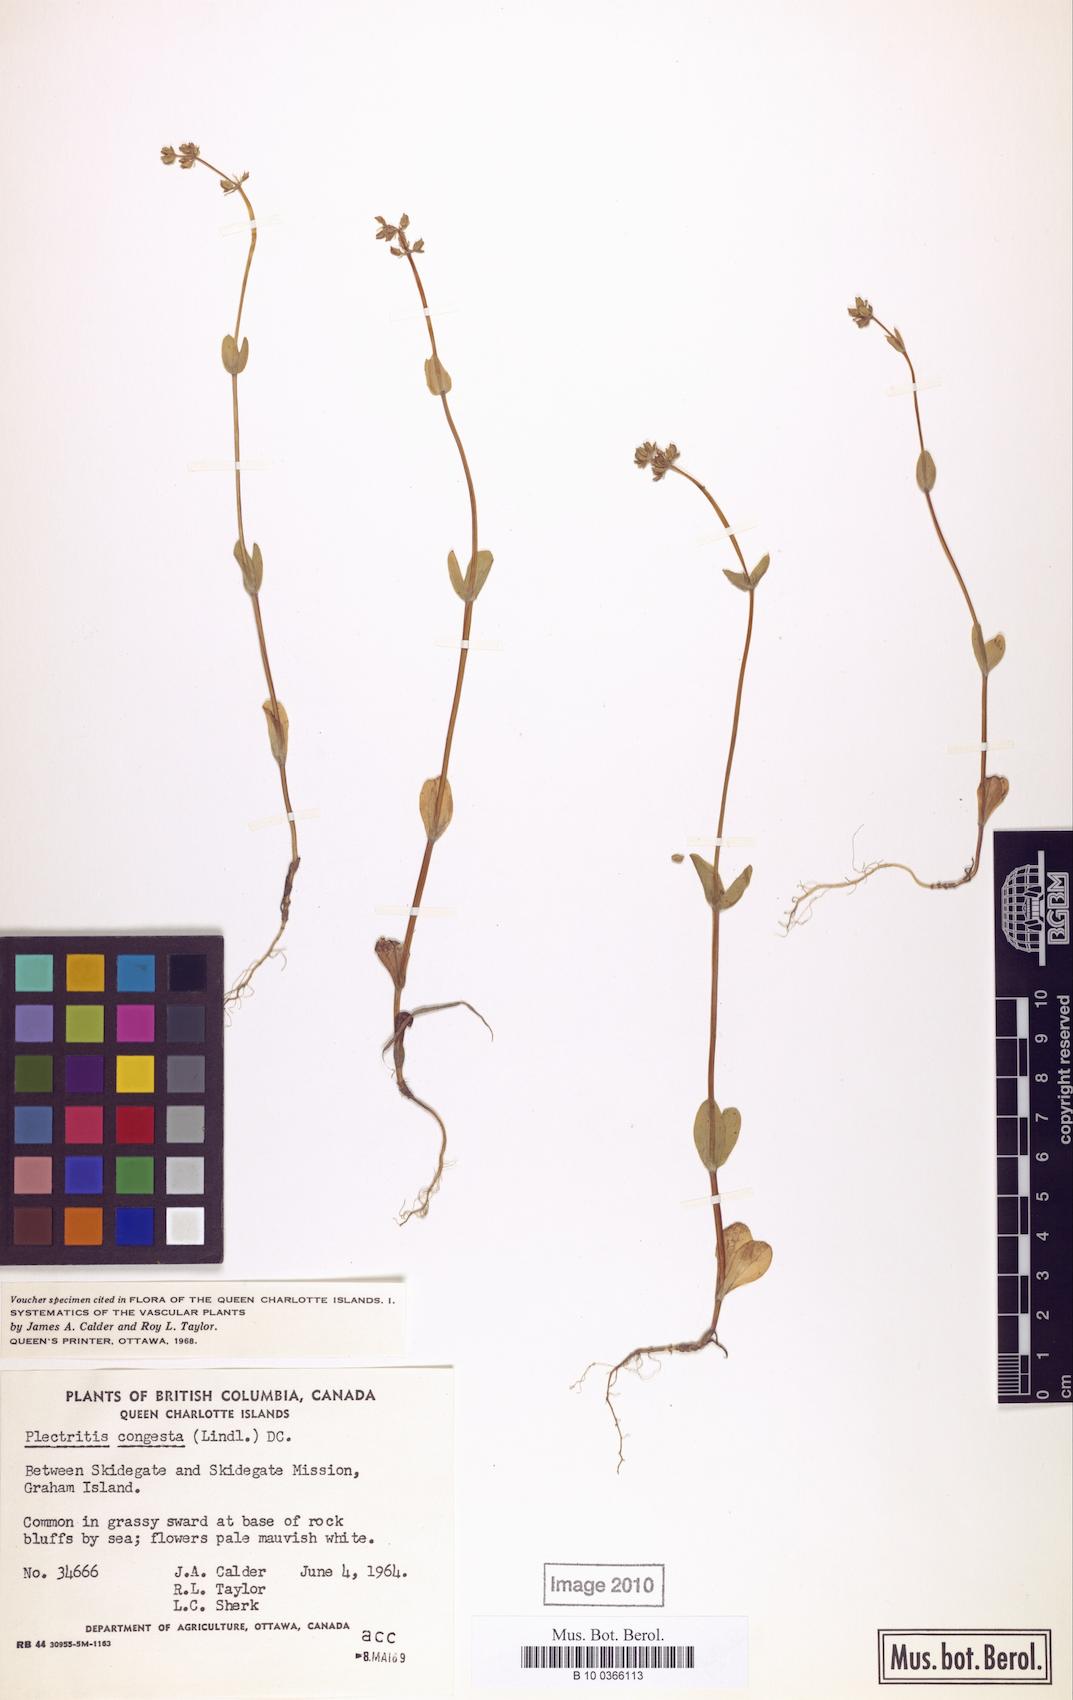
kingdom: Plantae
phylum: Tracheophyta
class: Magnoliopsida
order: Dipsacales
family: Caprifoliaceae
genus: Plectritis
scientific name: Plectritis congesta
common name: Pink plectritis
